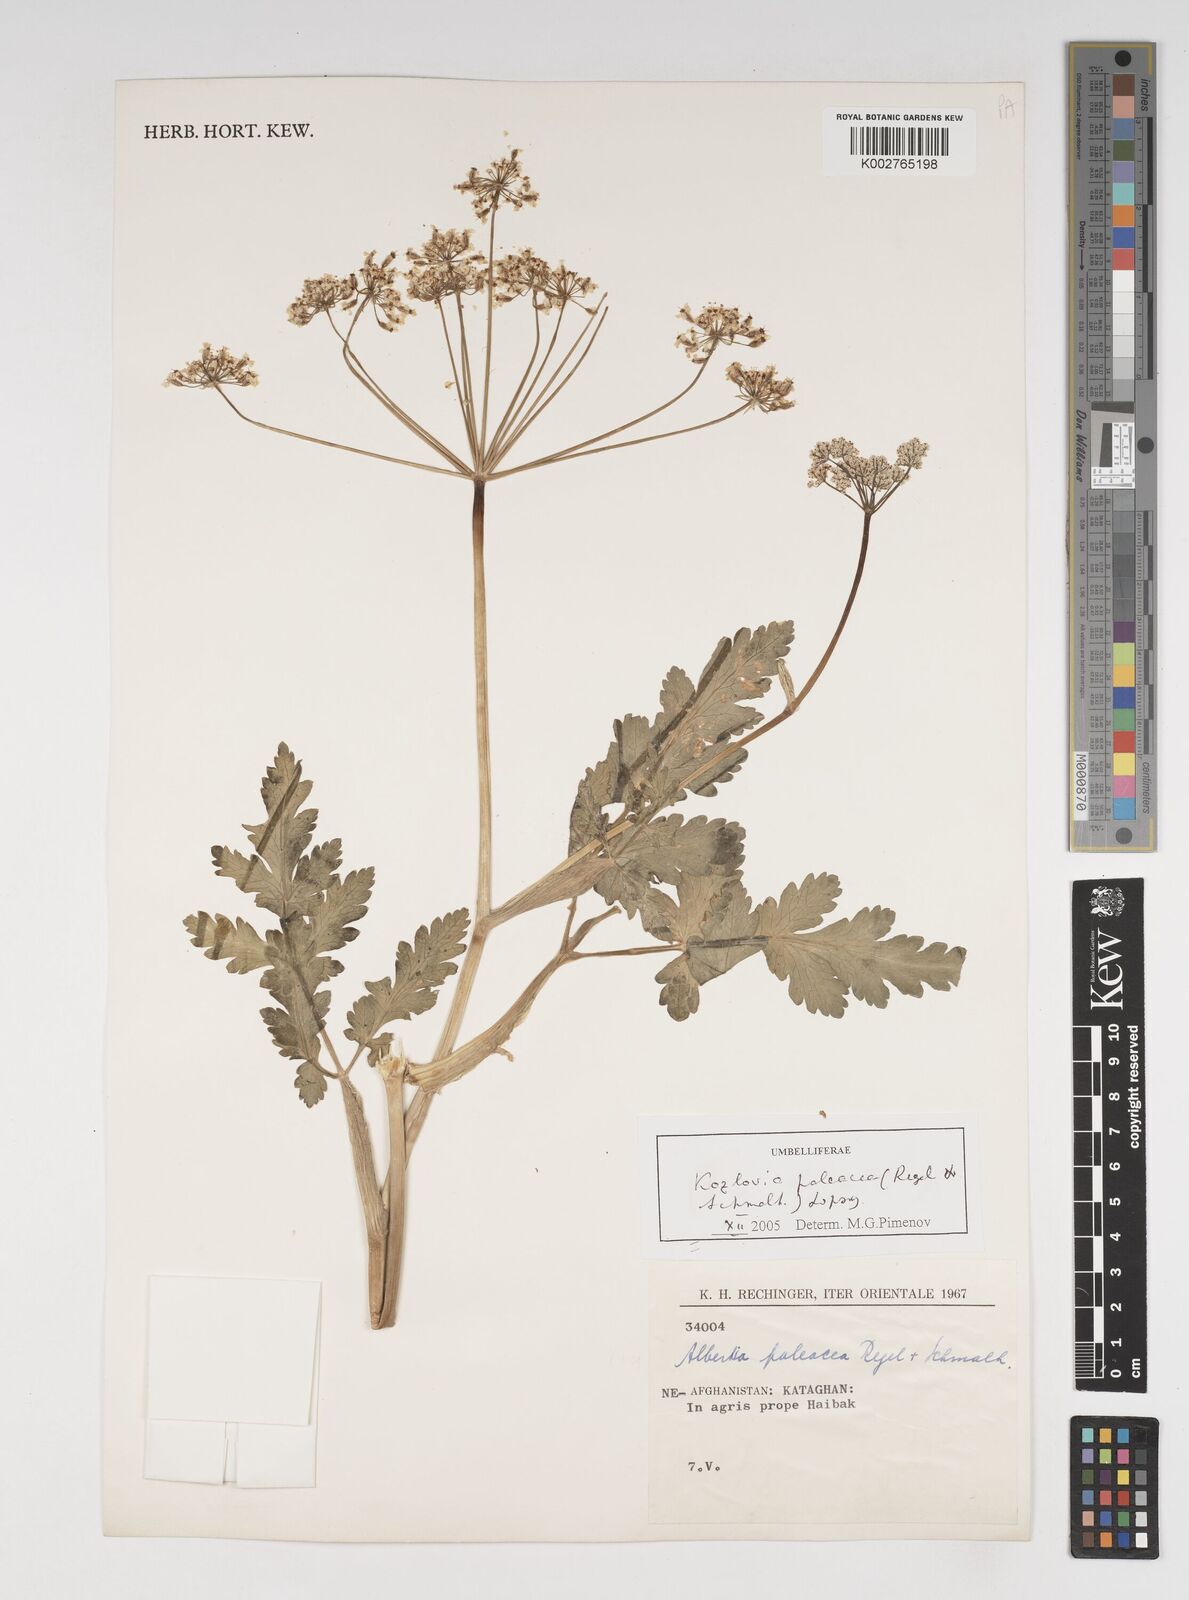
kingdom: Plantae
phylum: Tracheophyta
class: Magnoliopsida
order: Apiales
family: Apiaceae
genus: Kozlovia
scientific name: Kozlovia paleacea
